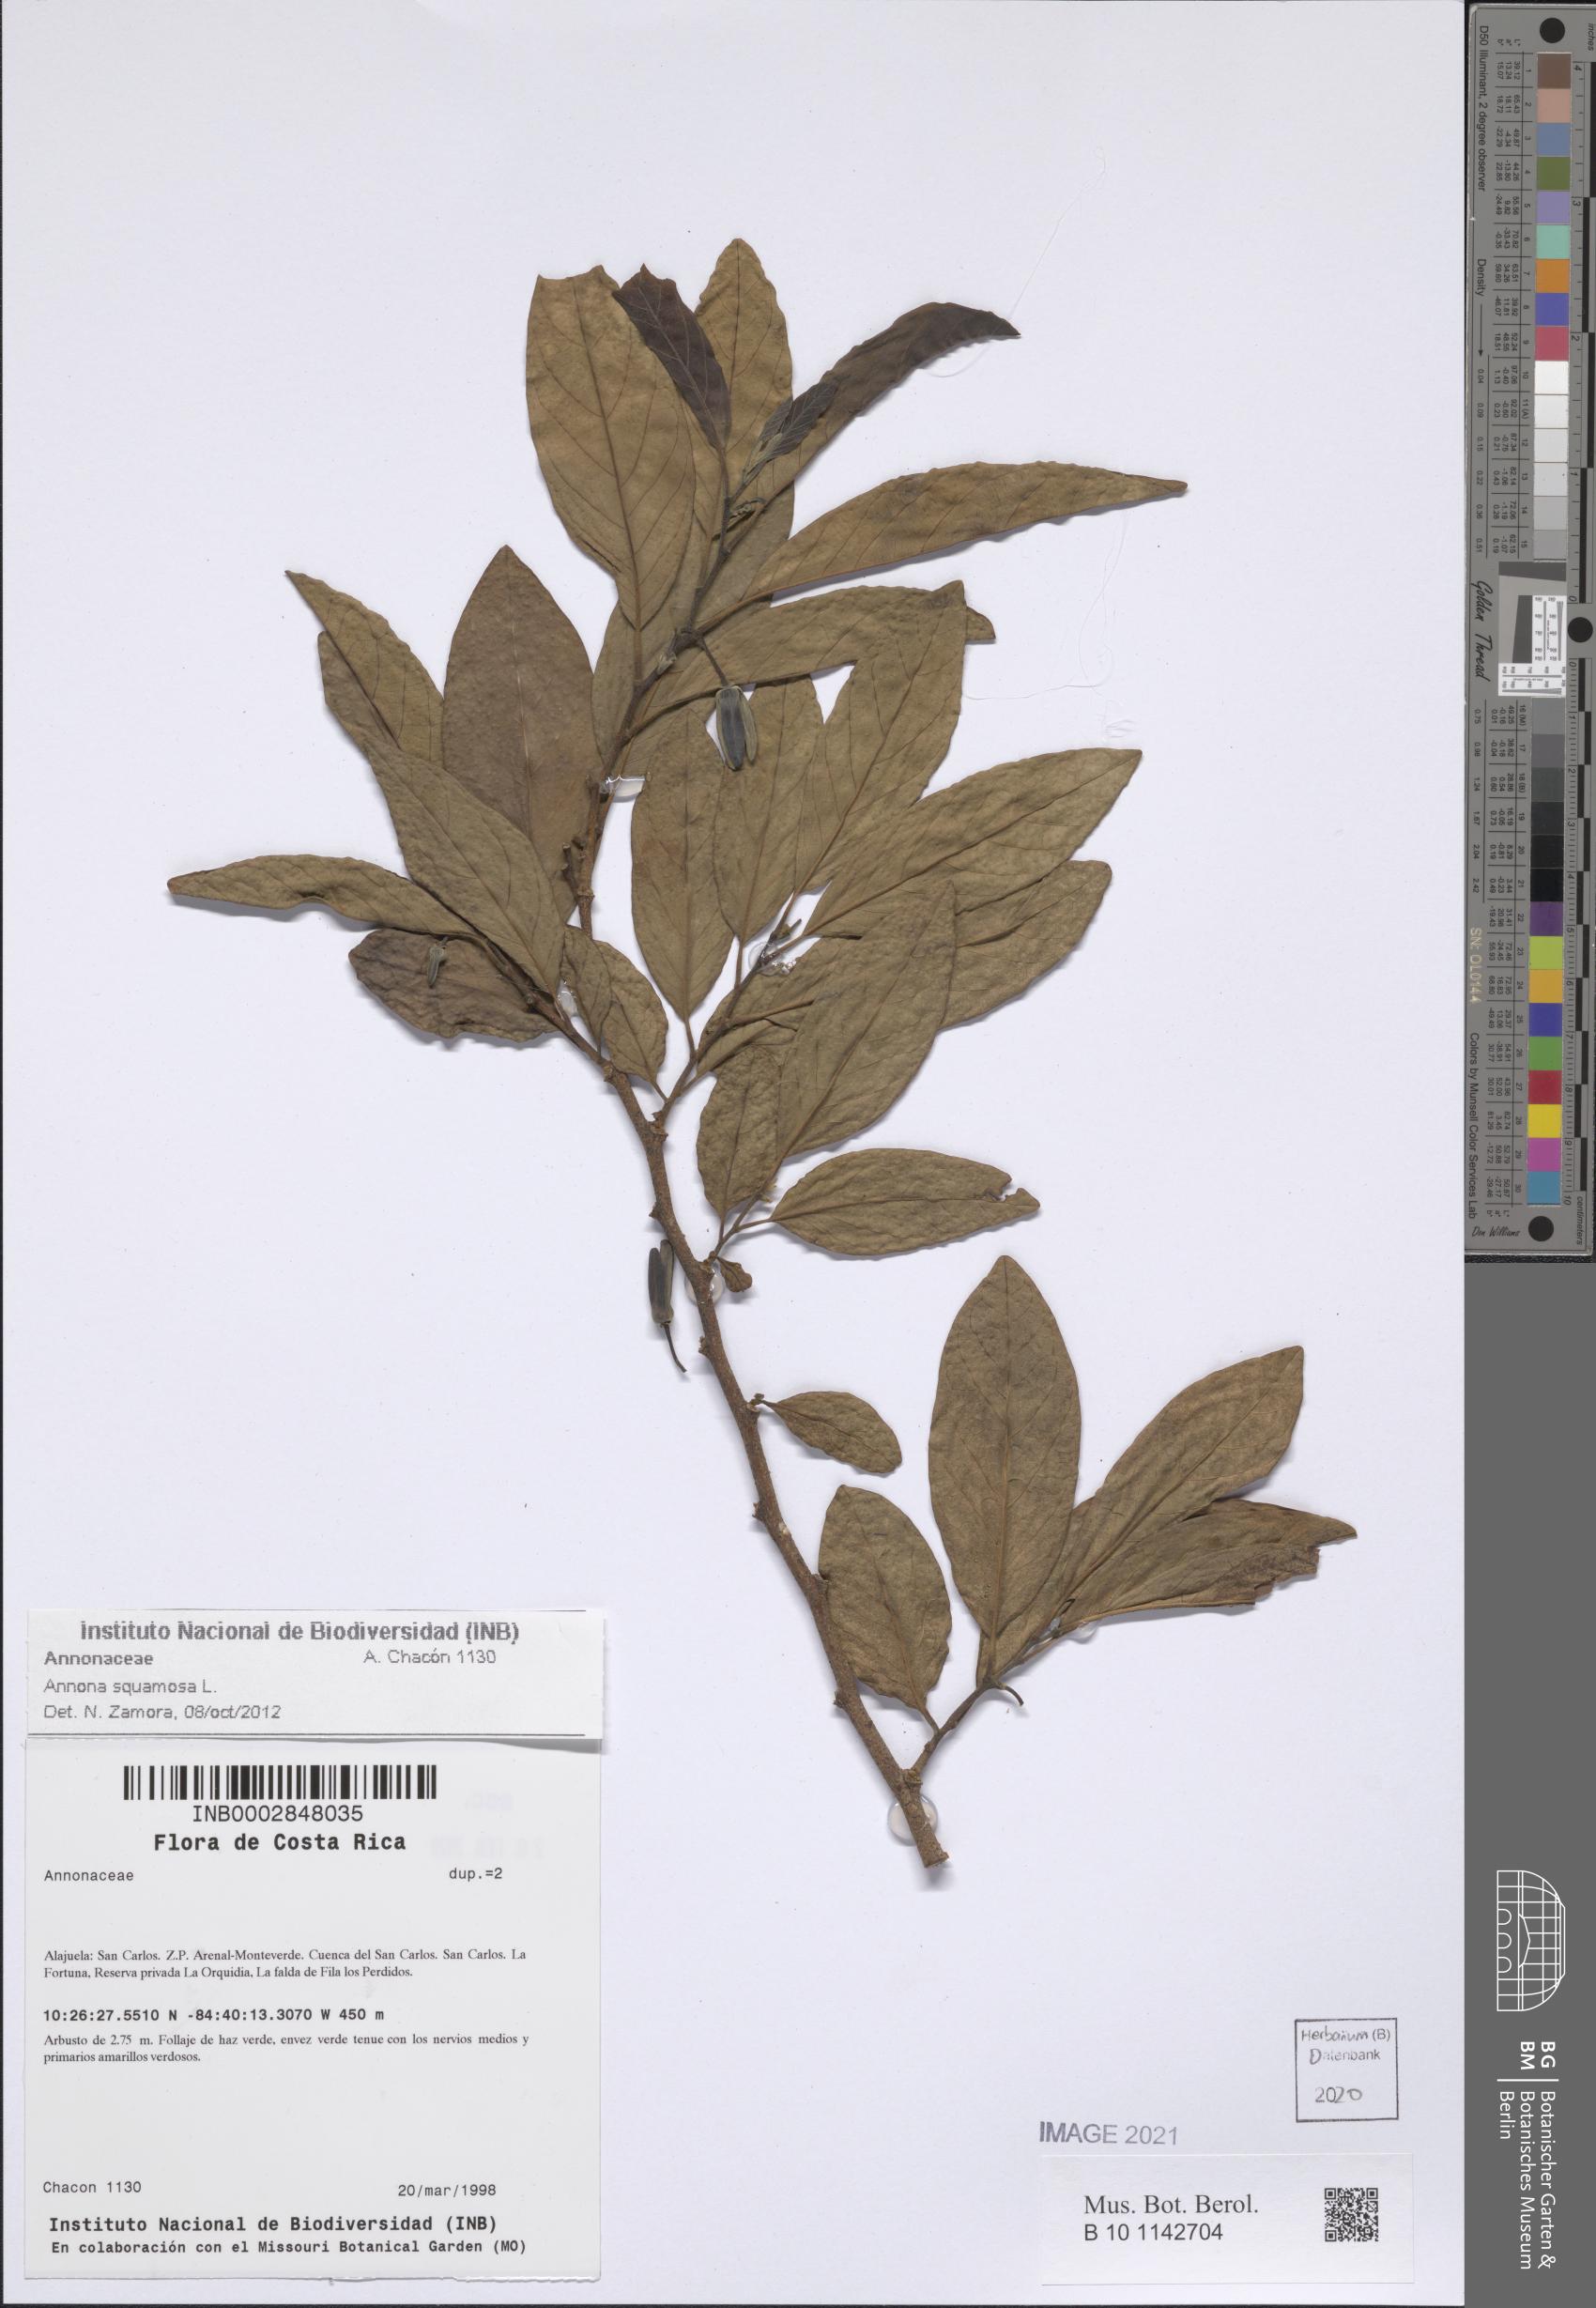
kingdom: Plantae
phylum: Tracheophyta
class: Magnoliopsida
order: Magnoliales
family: Annonaceae
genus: Annona
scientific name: Annona squamosa
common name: Custard-apple
